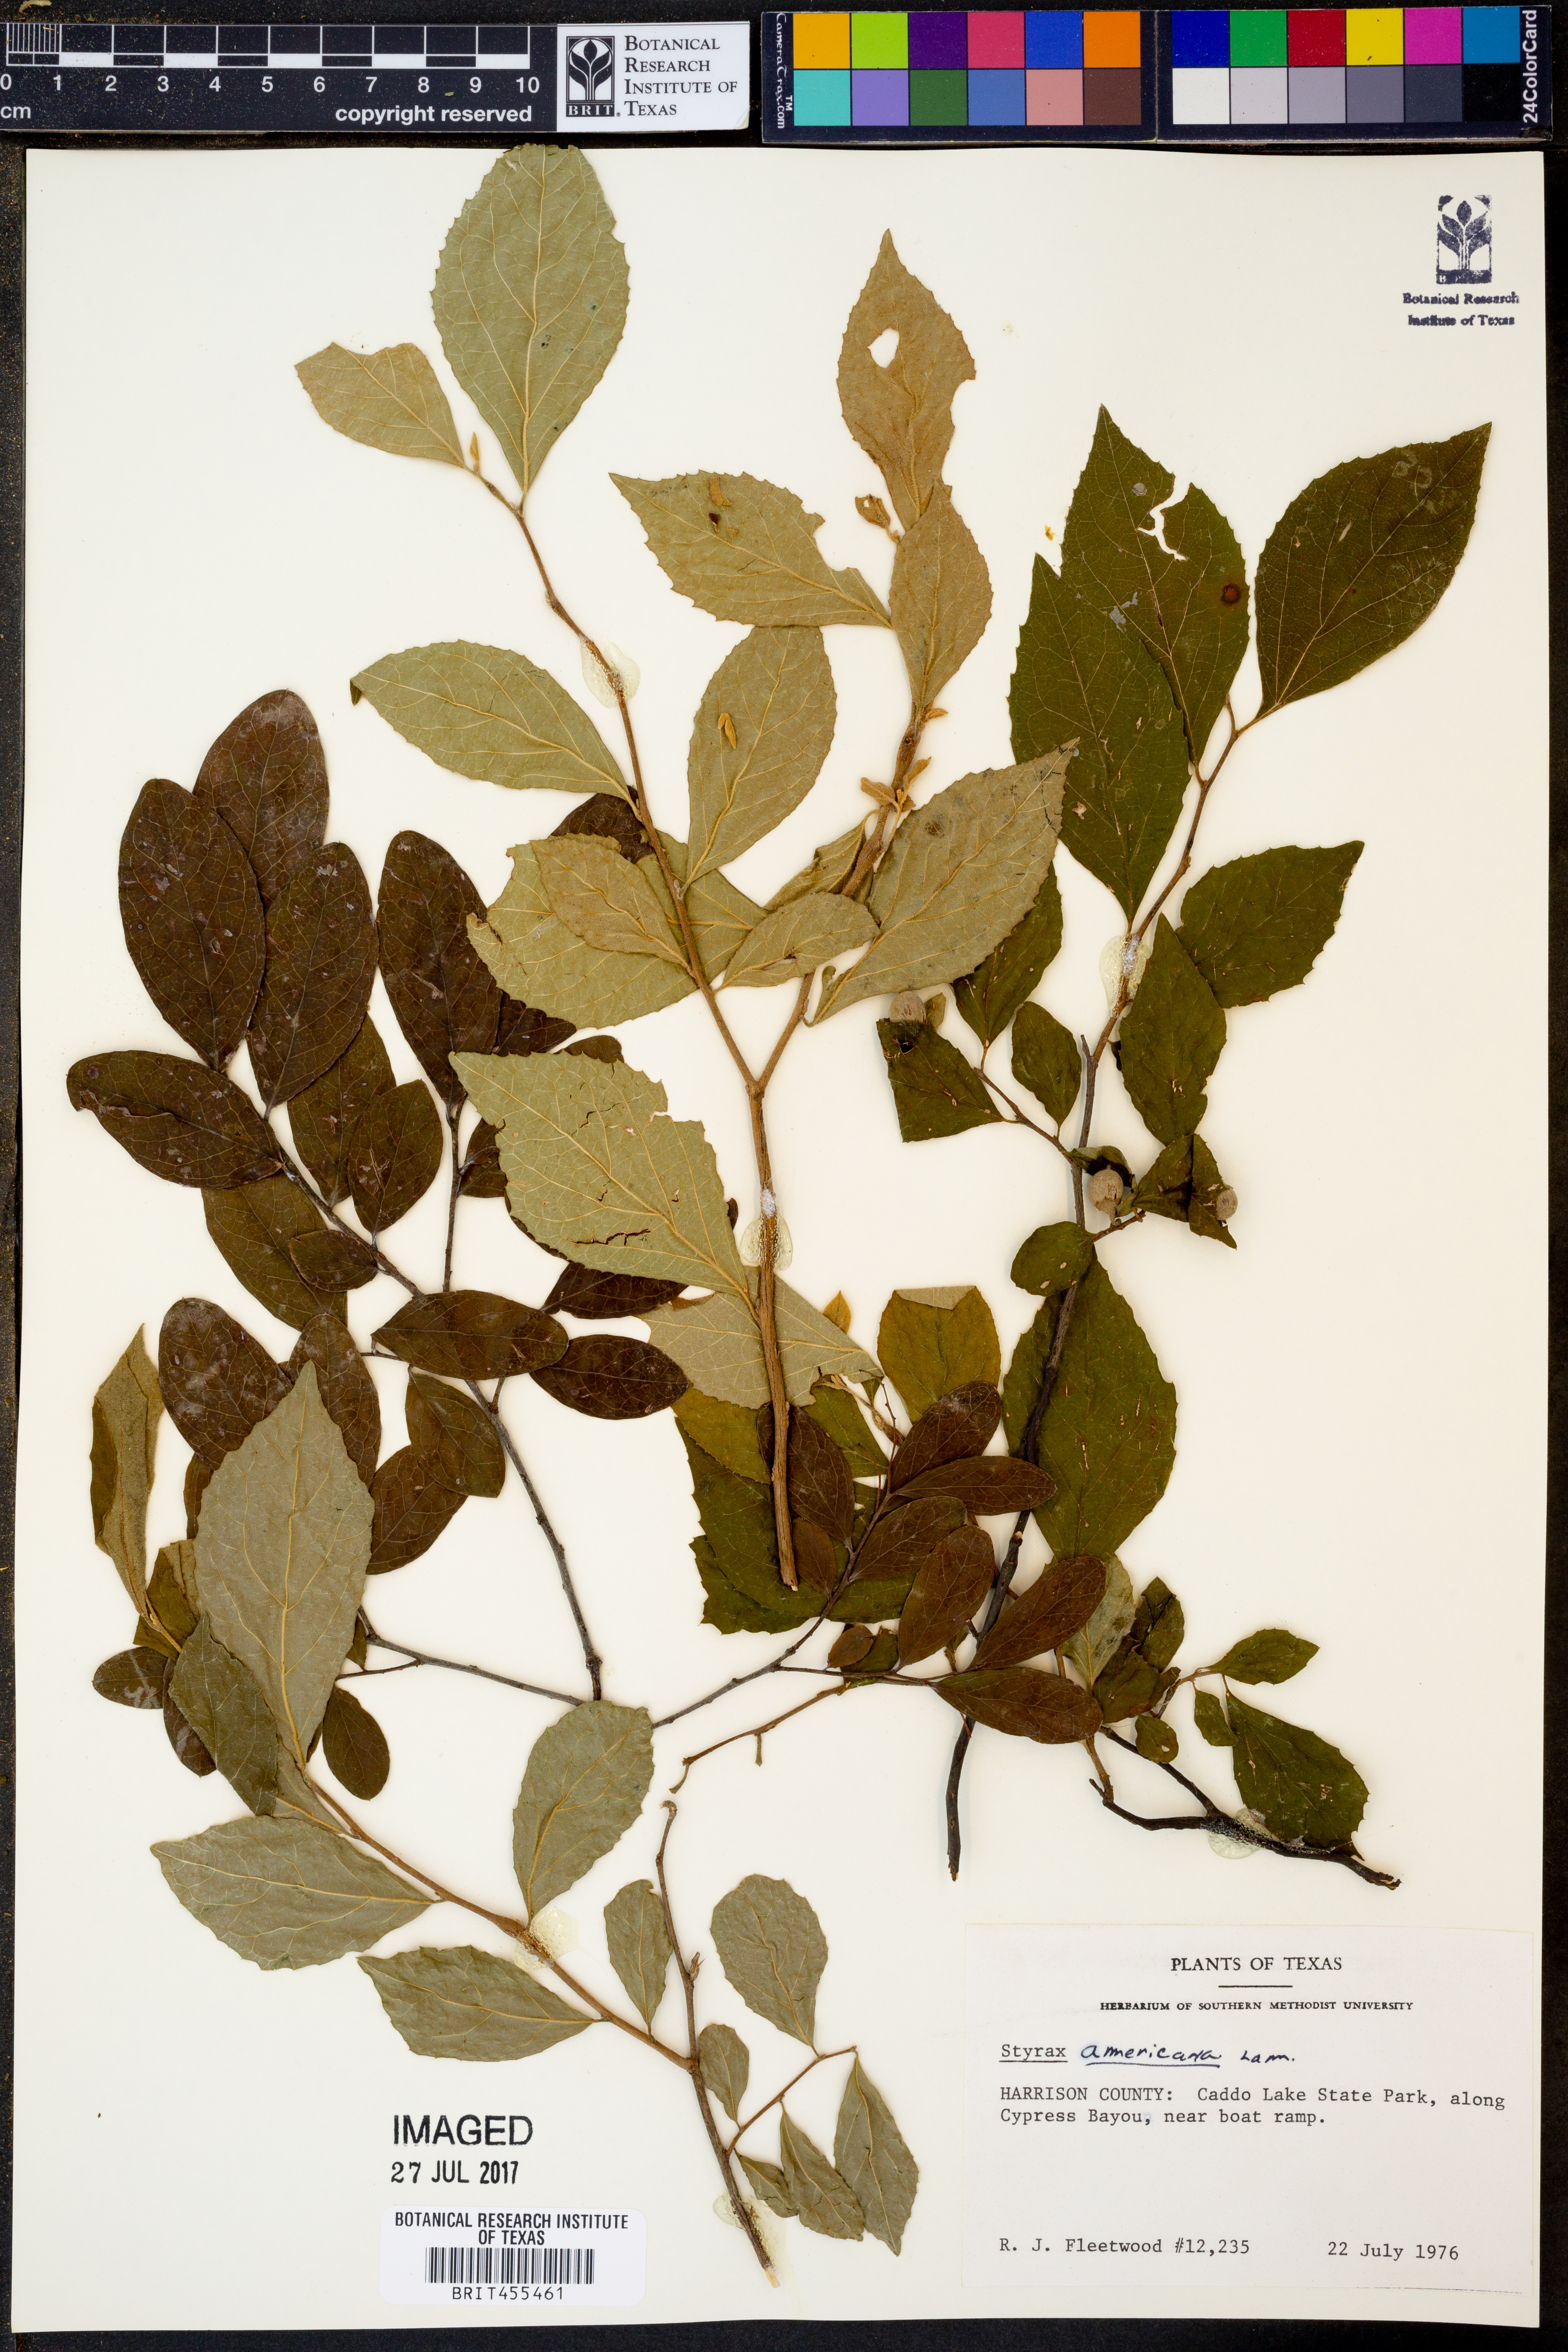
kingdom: Plantae
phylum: Tracheophyta
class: Magnoliopsida
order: Ericales
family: Styracaceae
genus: Styrax
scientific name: Styrax americanus
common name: American snowbell
